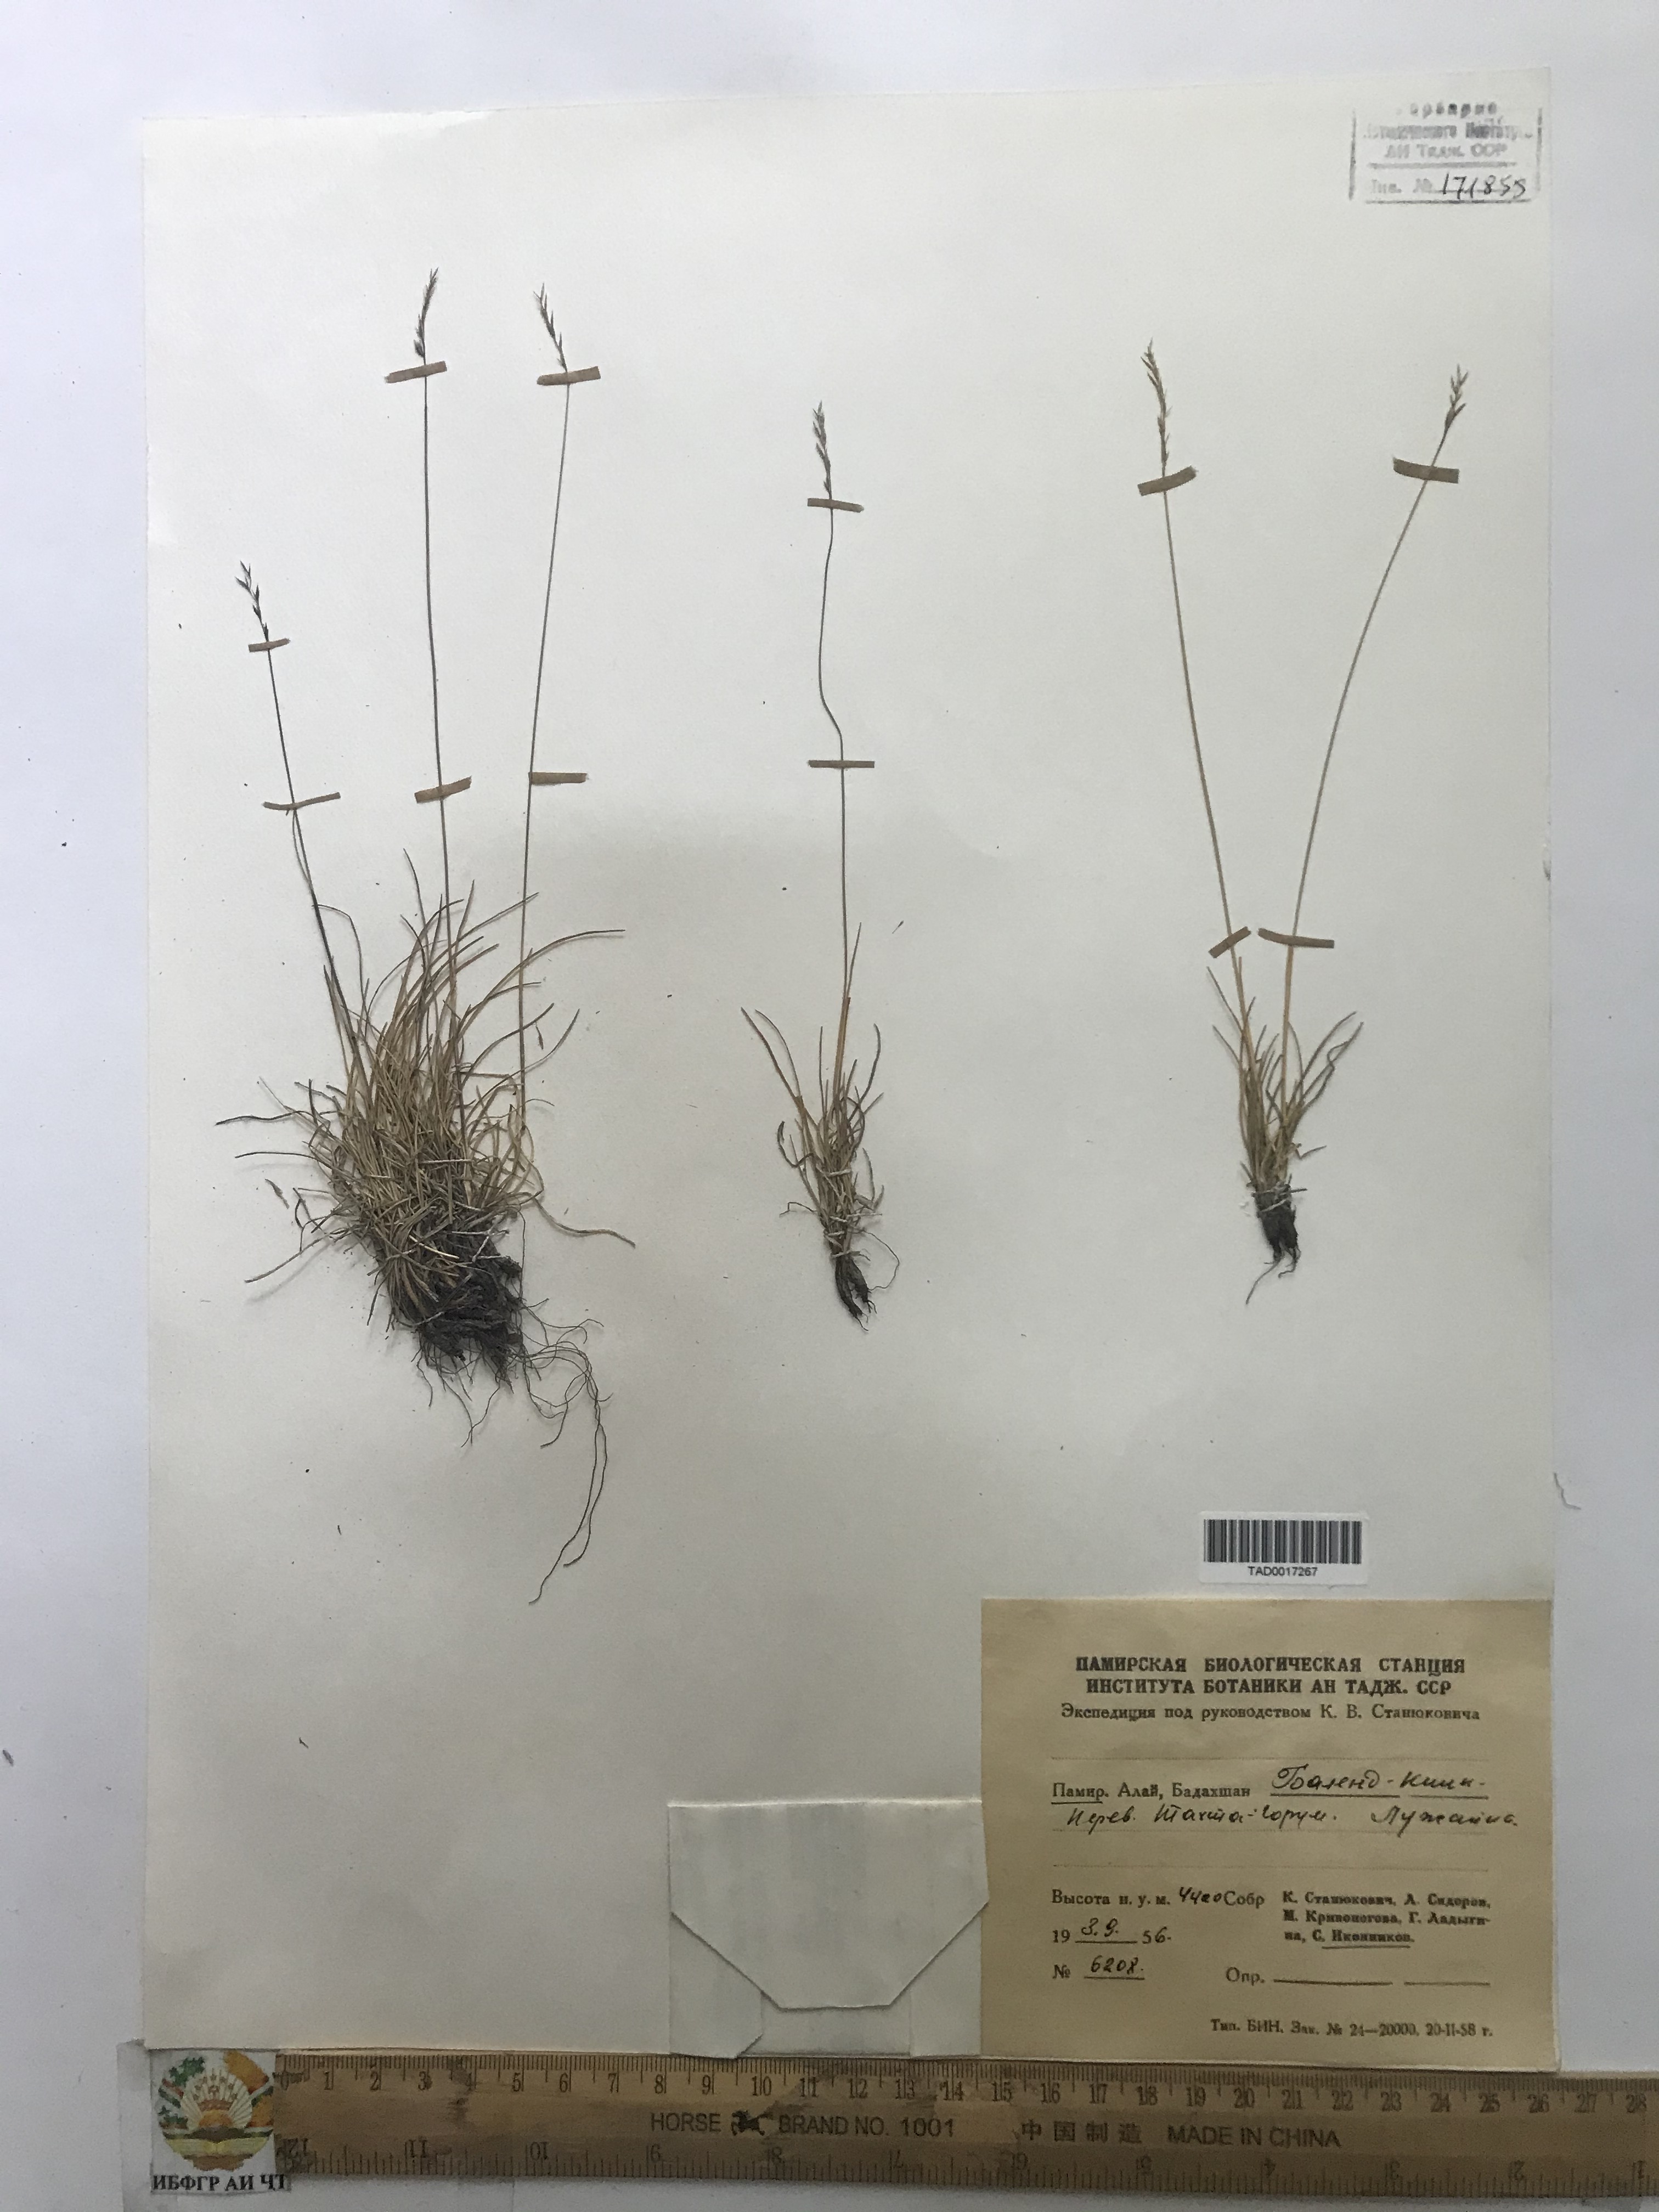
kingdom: Plantae
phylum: Tracheophyta
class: Liliopsida
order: Poales
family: Poaceae
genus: Poa
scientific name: Poa glauca
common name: Glaucous bluegrass
